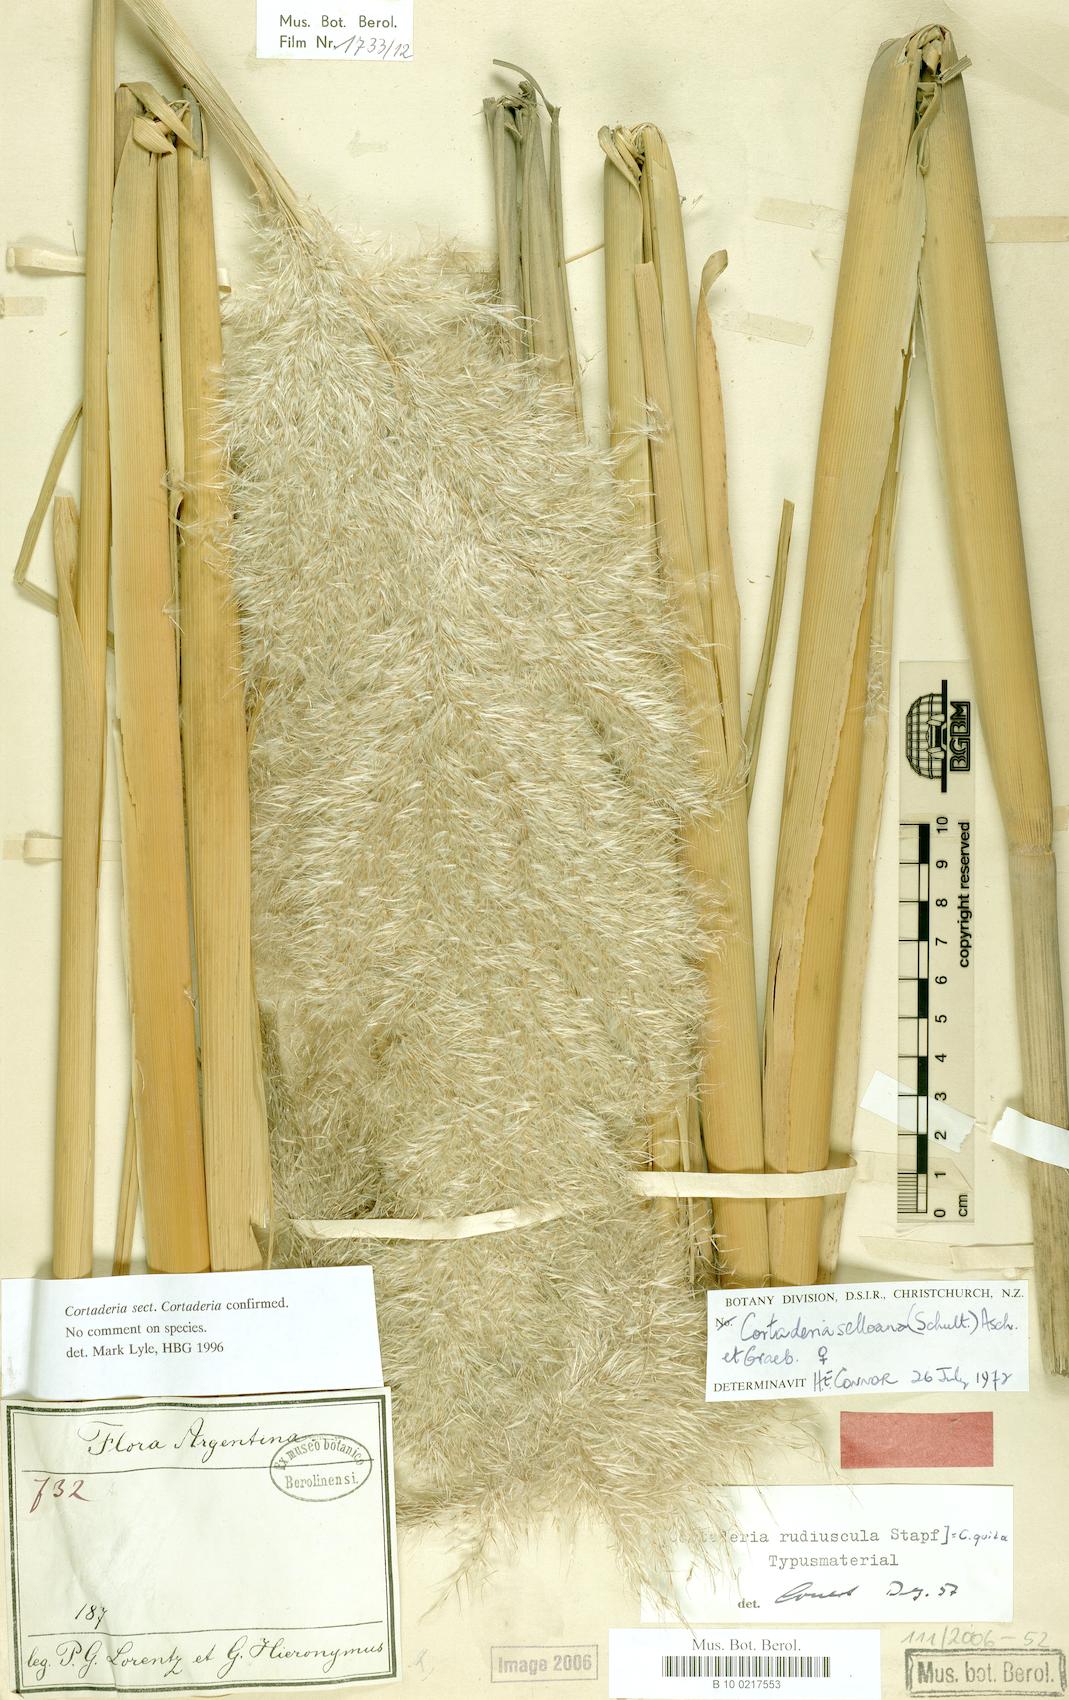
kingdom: Plantae
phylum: Tracheophyta
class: Liliopsida
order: Poales
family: Poaceae
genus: Cortaderia
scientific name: Cortaderia speciosa
